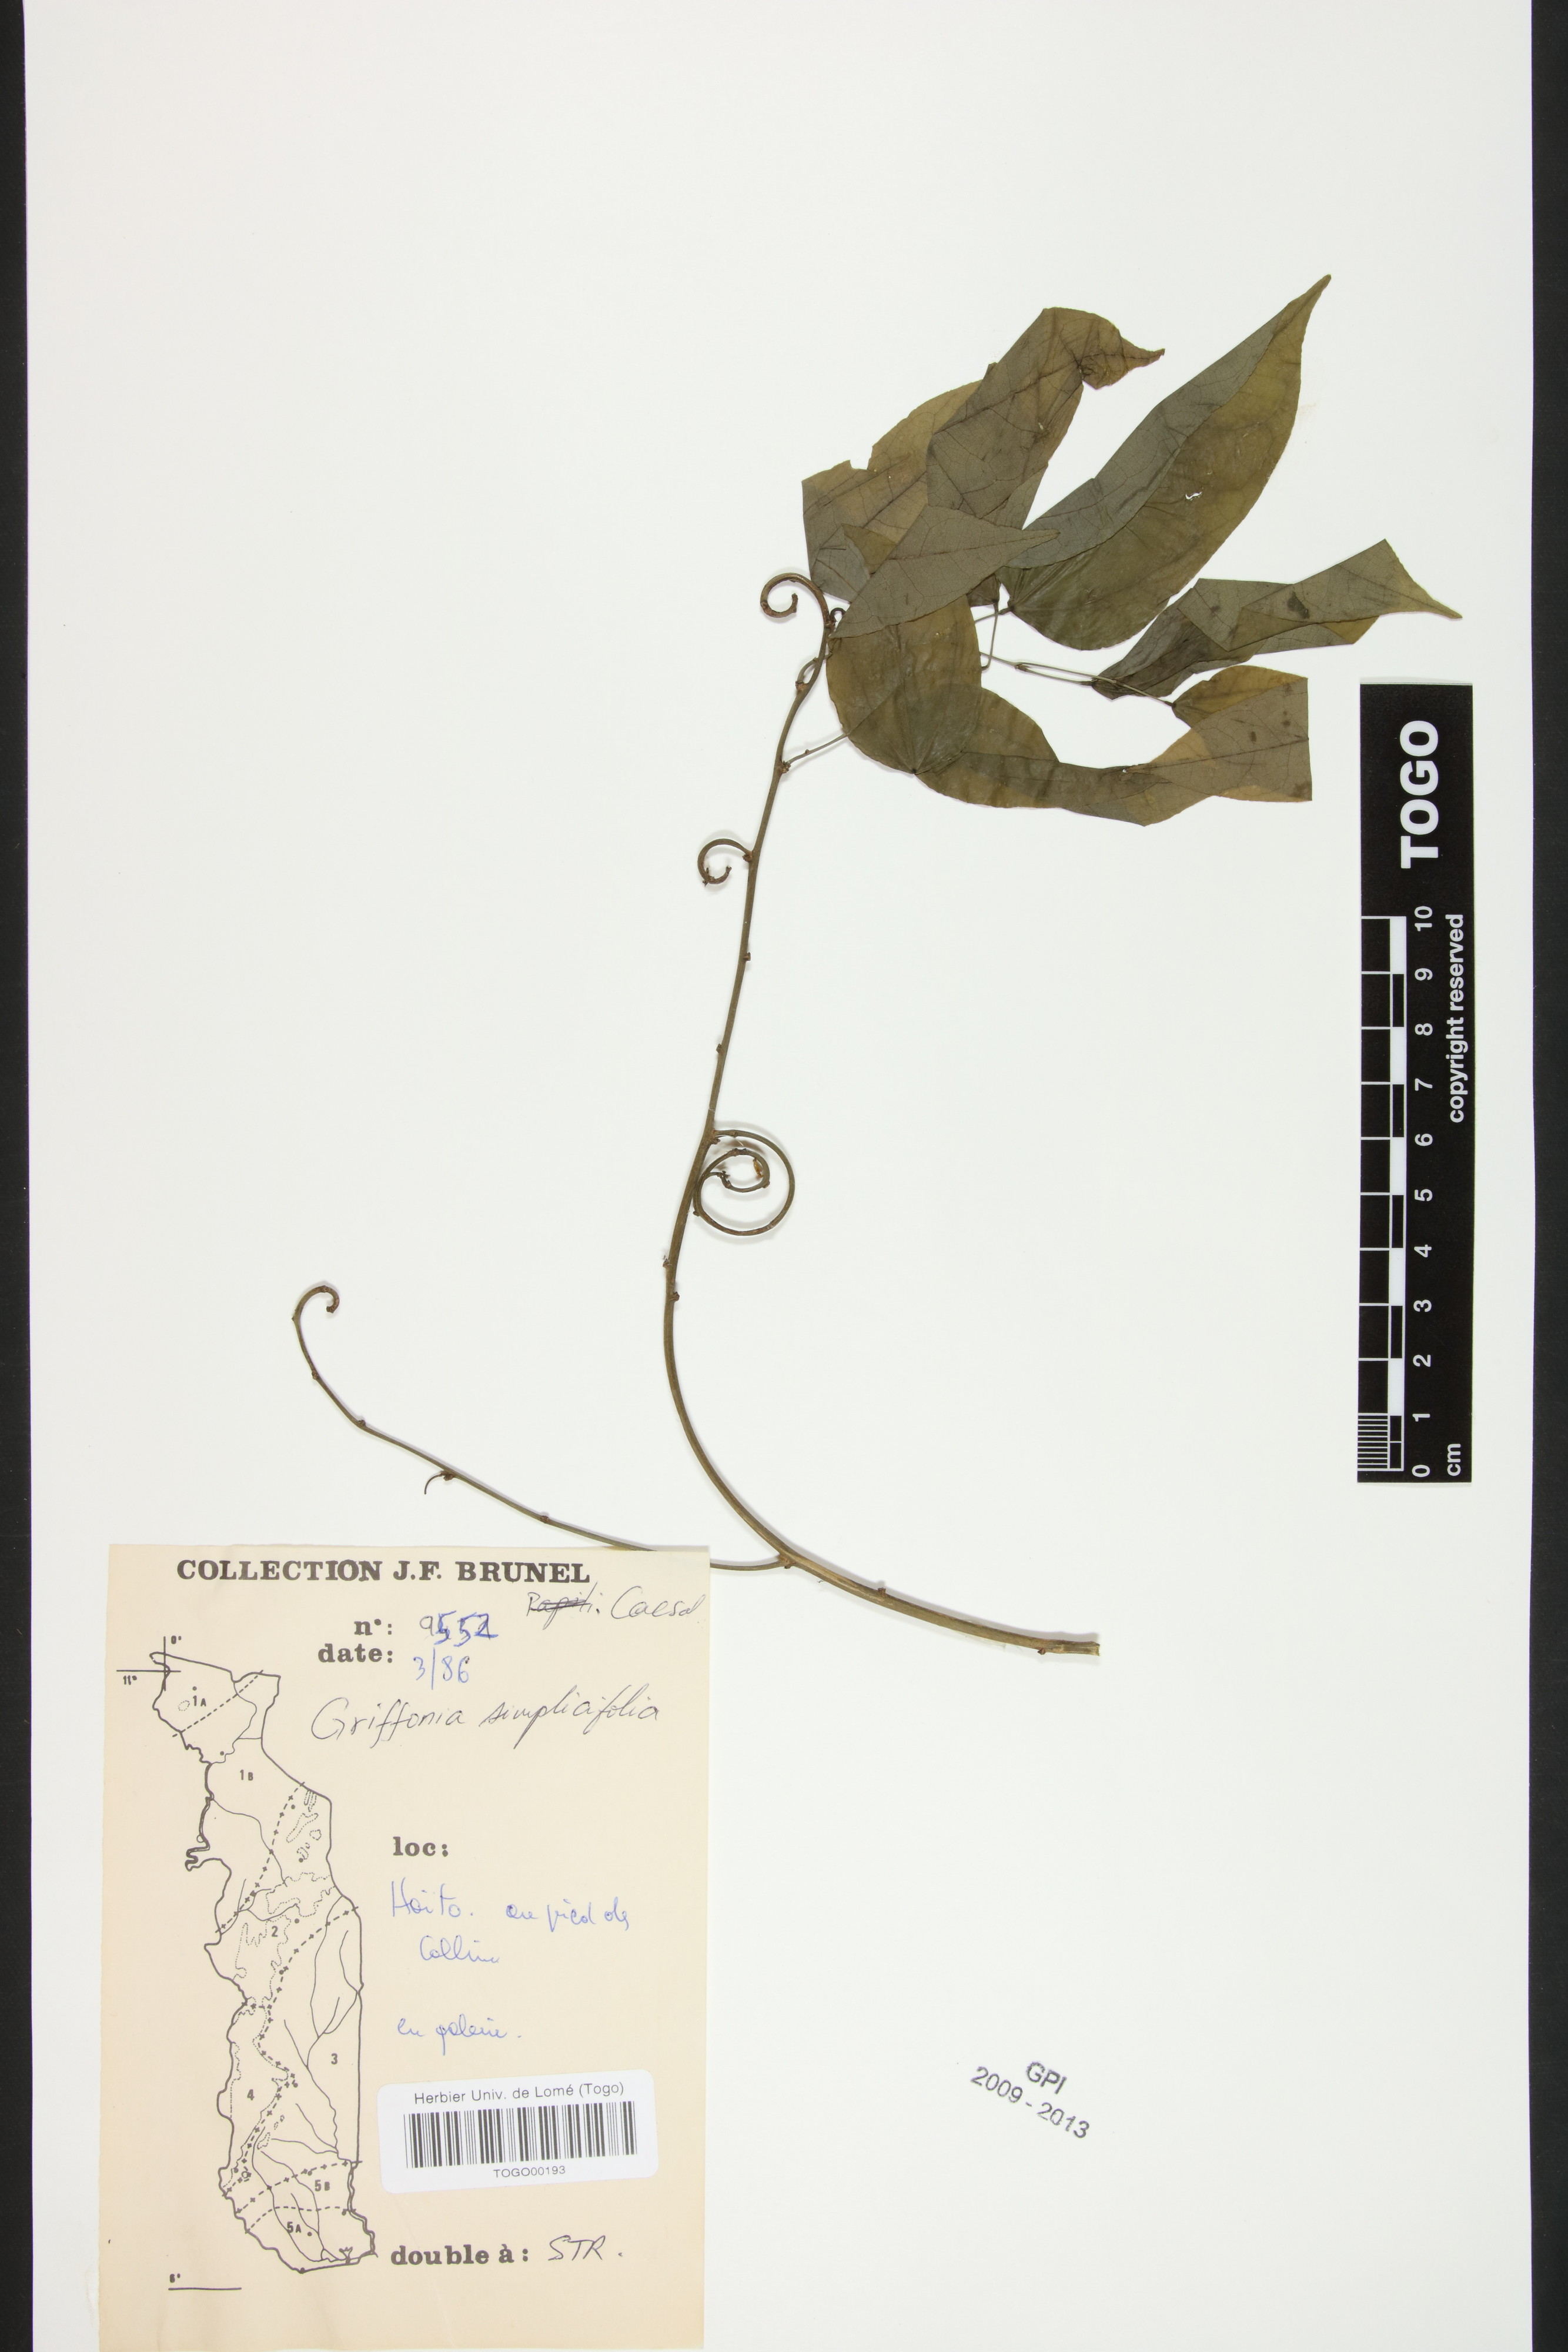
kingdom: Plantae
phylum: Tracheophyta
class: Magnoliopsida
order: Fabales
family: Fabaceae
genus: Griffonia
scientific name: Griffonia simplicifolia
